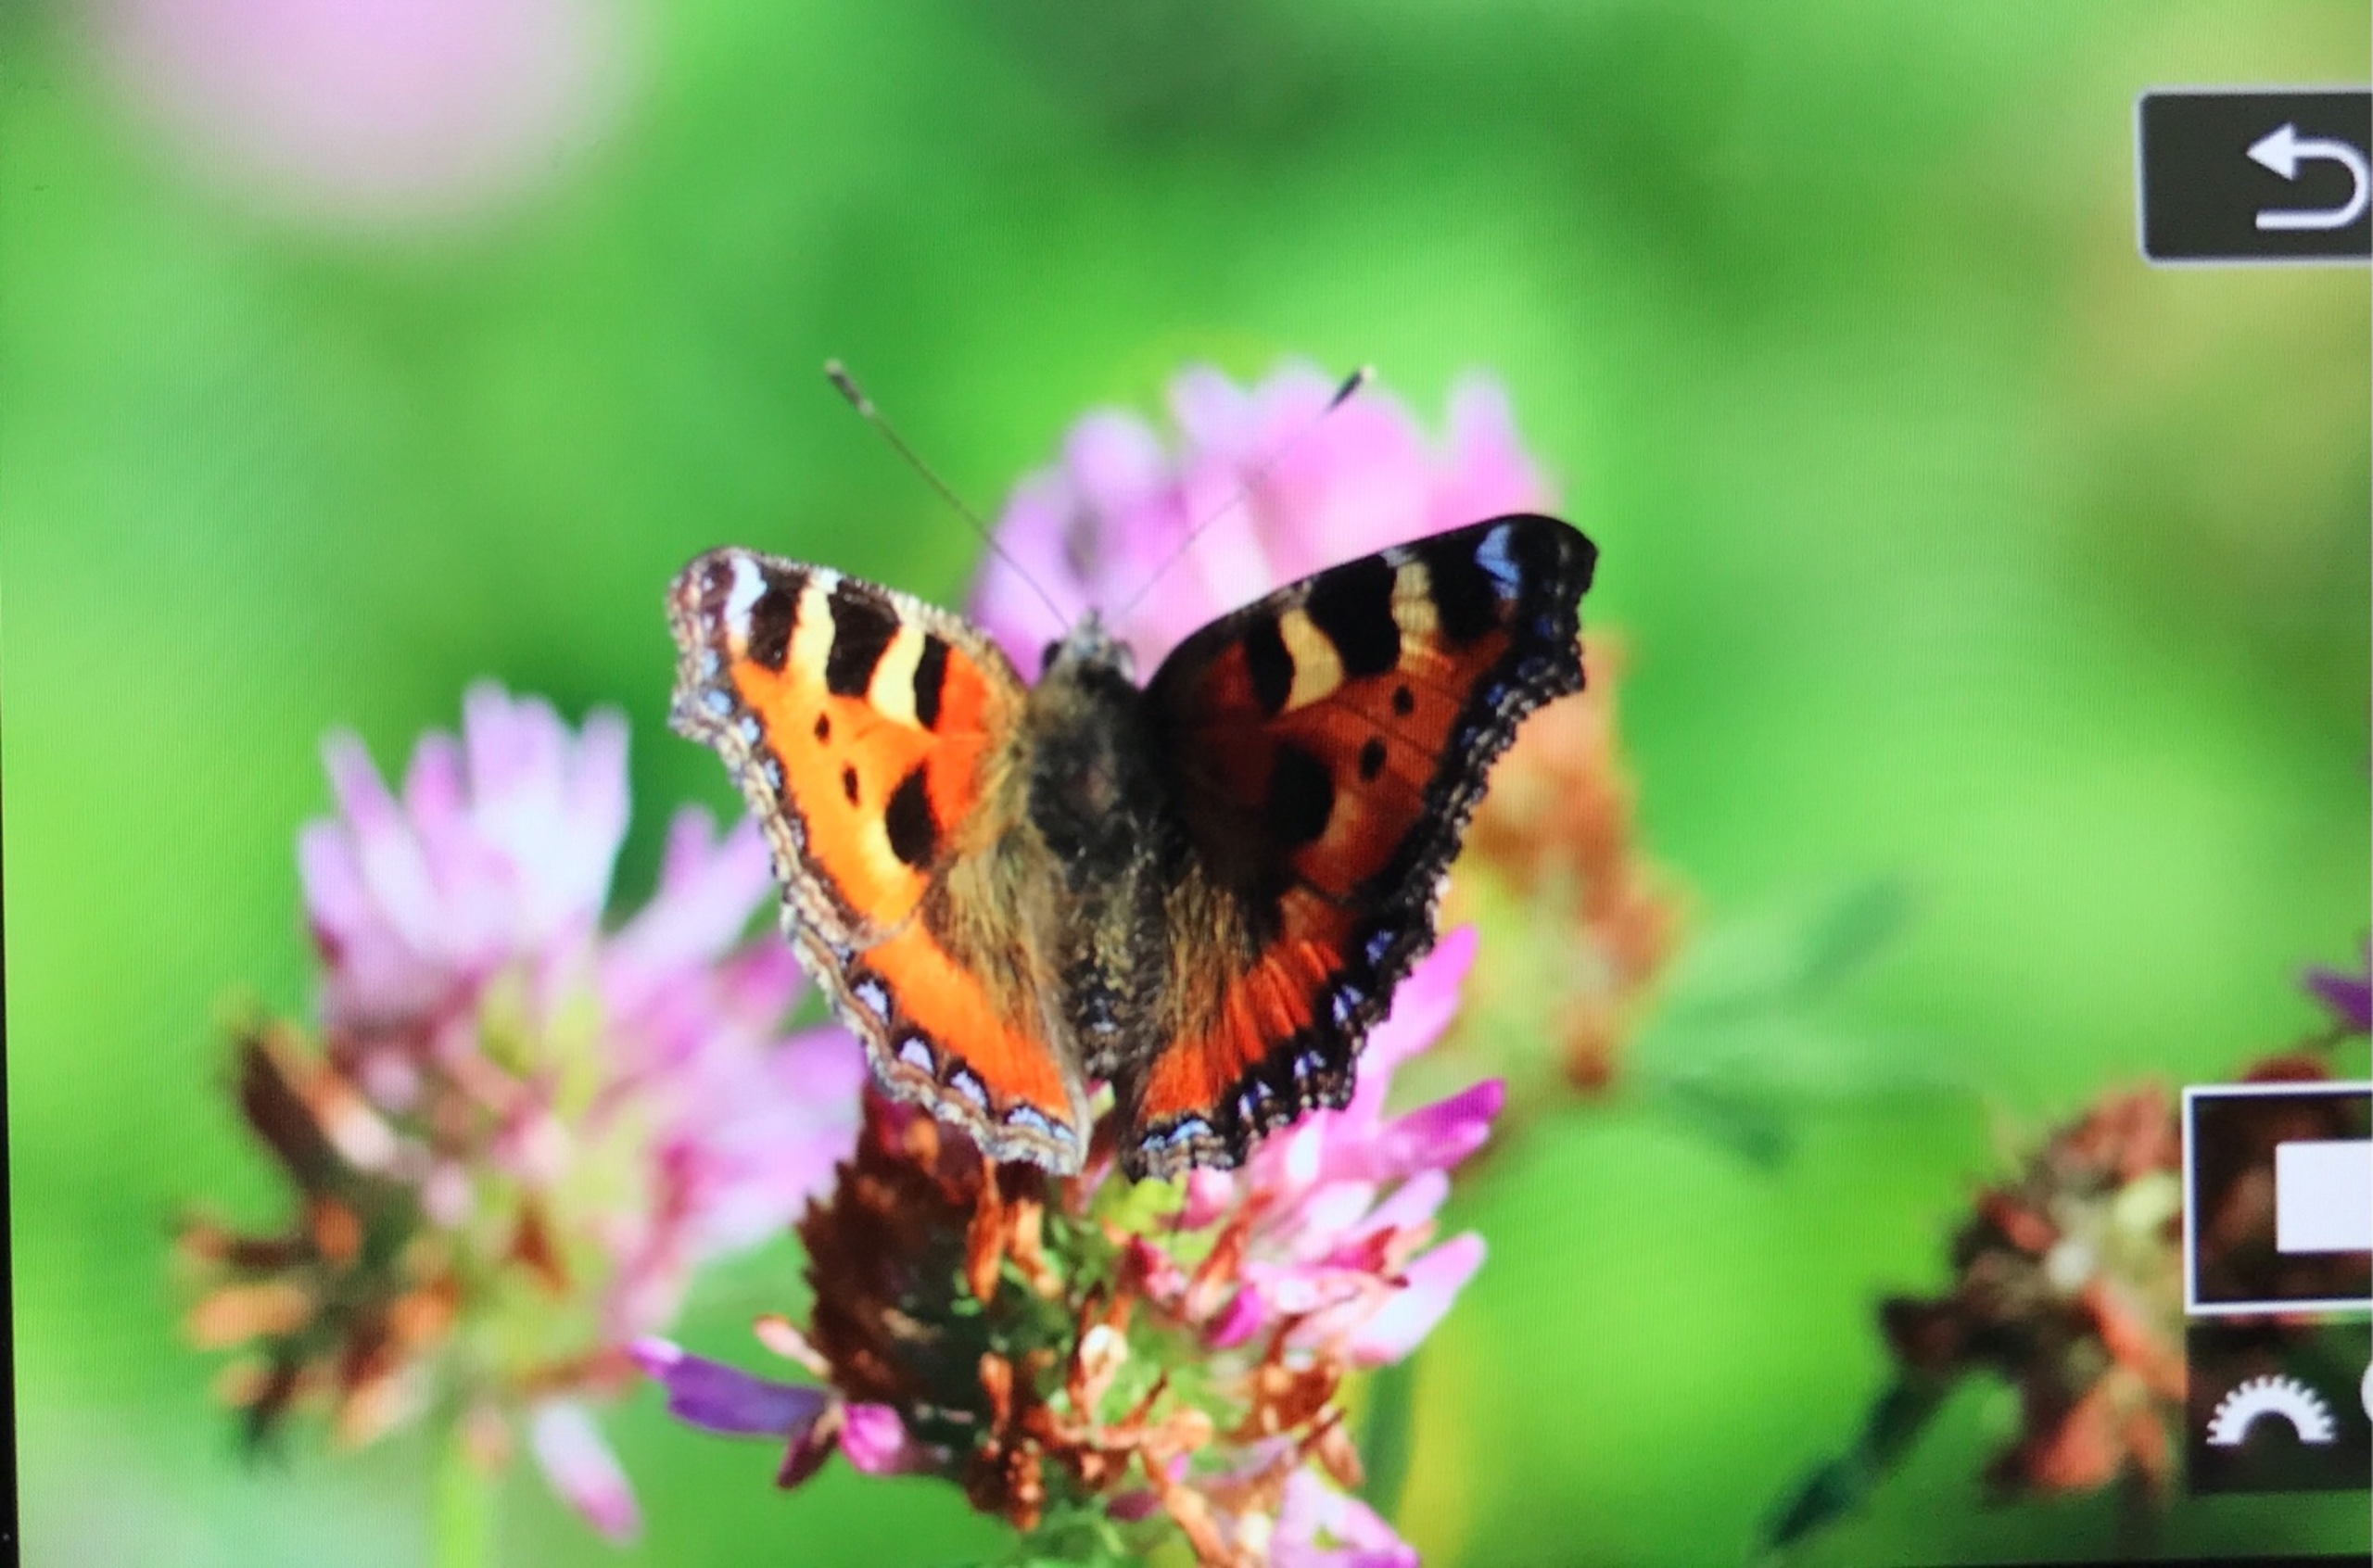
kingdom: Animalia
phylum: Arthropoda
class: Insecta
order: Lepidoptera
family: Nymphalidae
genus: Aglais
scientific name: Aglais urticae
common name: Nældens takvinge
